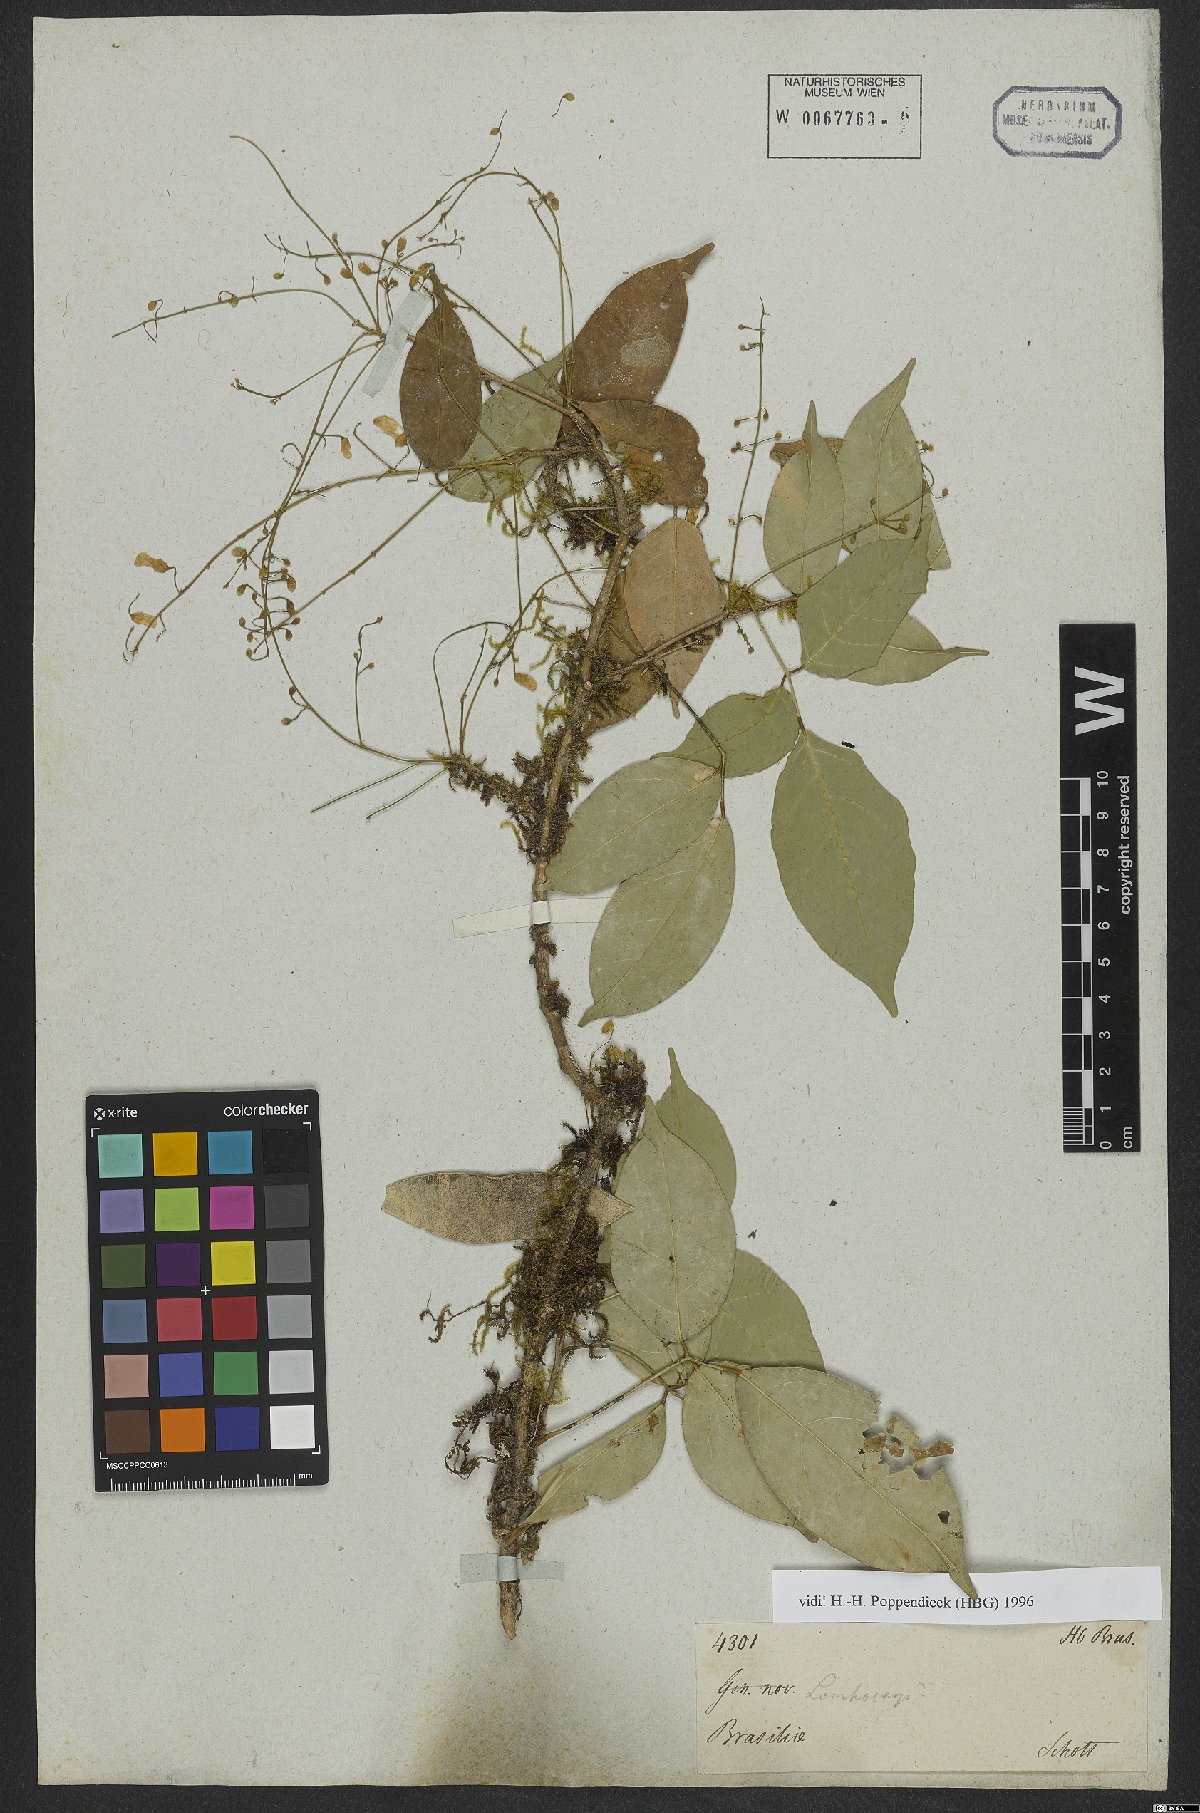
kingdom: Plantae
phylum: Tracheophyta
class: Magnoliopsida
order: Fabales
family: Fabaceae
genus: Lonchocarpus
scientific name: Lonchocarpus
